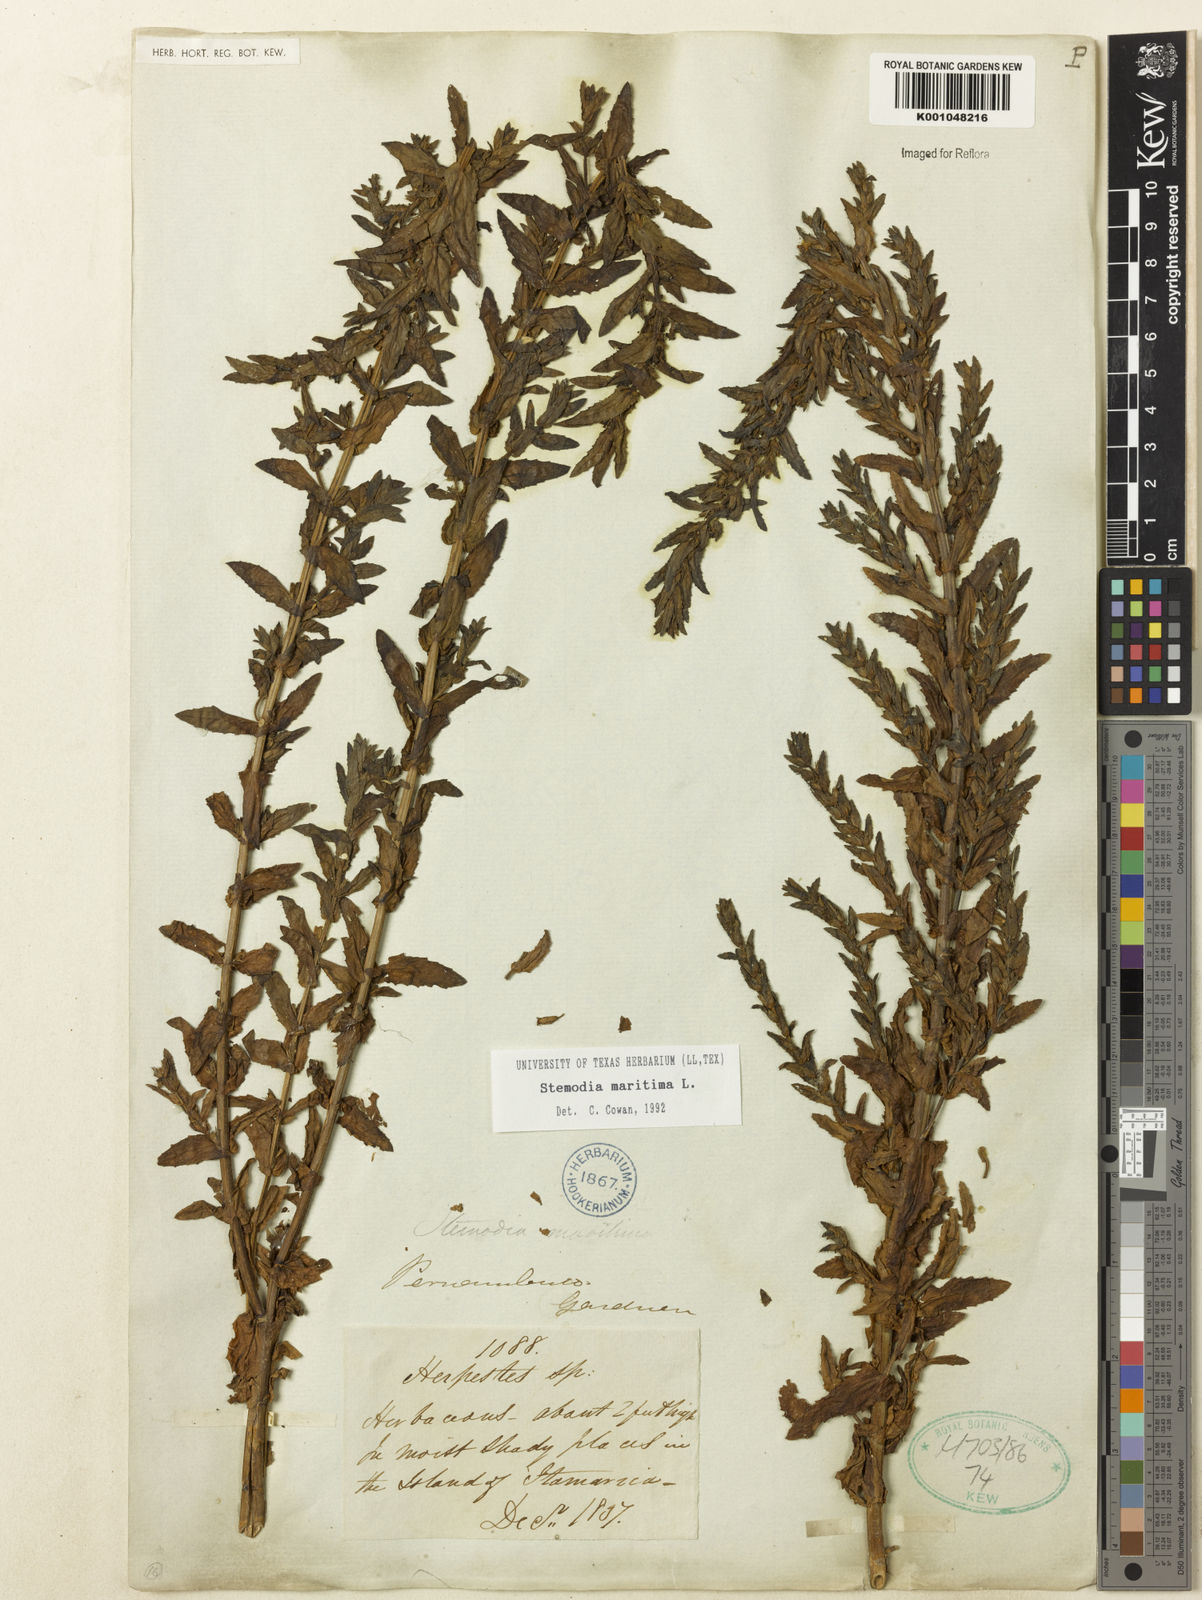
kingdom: Plantae
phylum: Tracheophyta
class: Magnoliopsida
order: Lamiales
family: Plantaginaceae
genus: Stemodia
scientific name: Stemodia maritima
